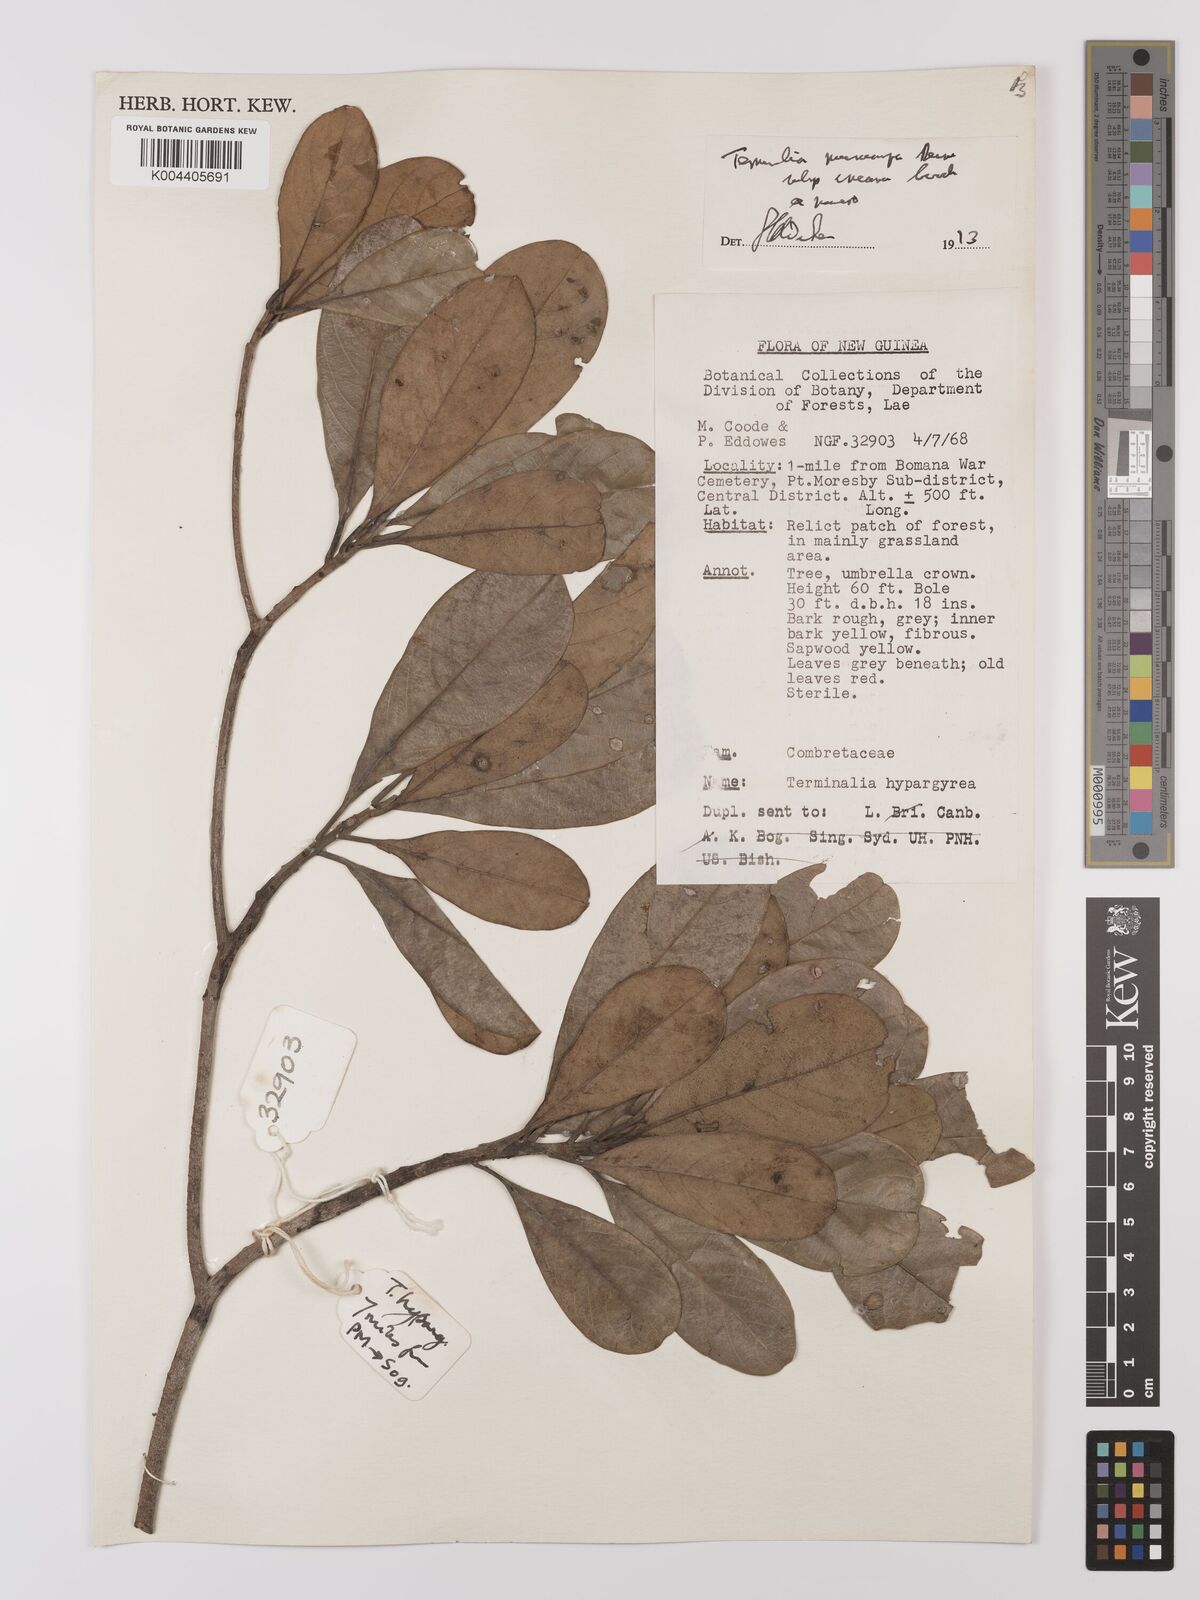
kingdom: Plantae
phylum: Tracheophyta
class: Magnoliopsida
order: Myrtales
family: Combretaceae
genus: Terminalia
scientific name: Terminalia microcarpa
